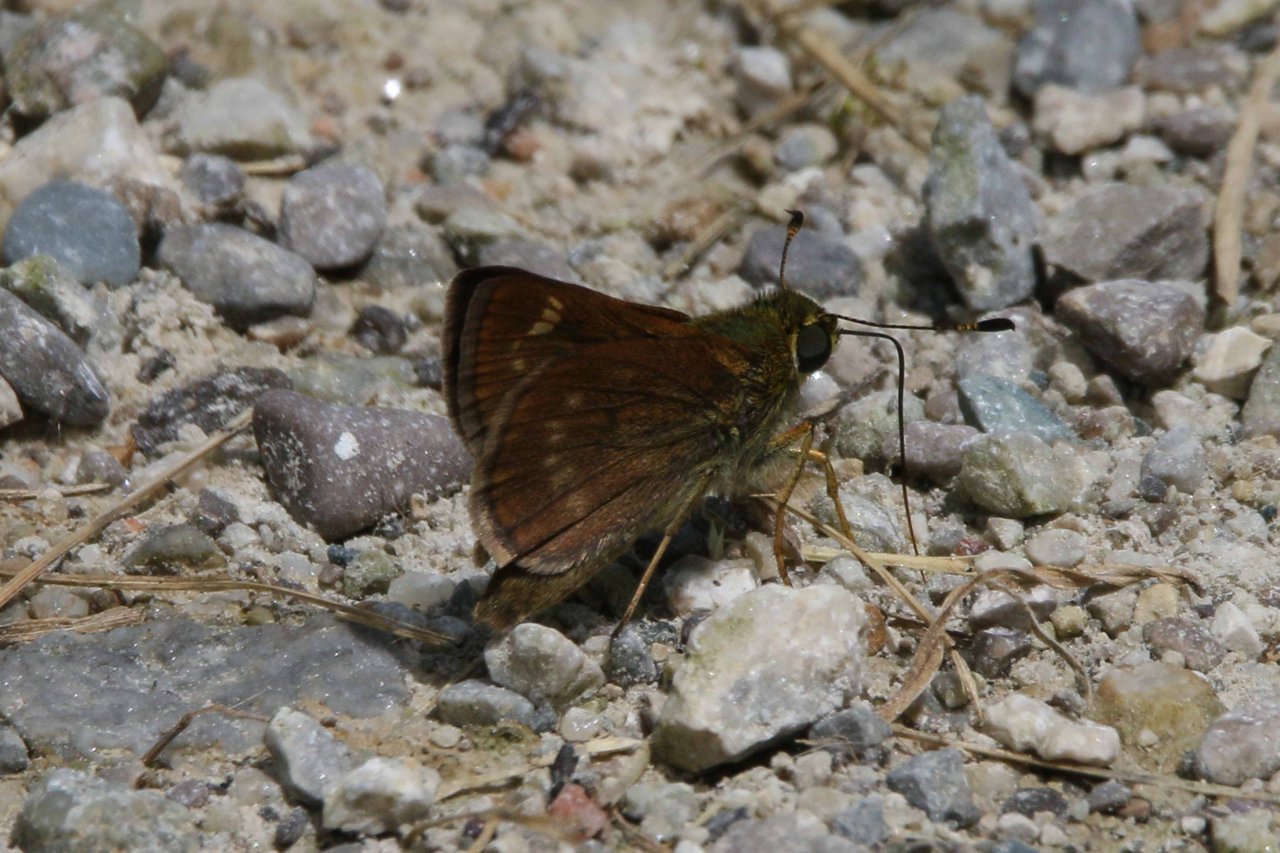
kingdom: Animalia
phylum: Arthropoda
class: Insecta
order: Lepidoptera
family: Hesperiidae
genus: Vernia
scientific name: Vernia verna
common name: Little Glassywing
